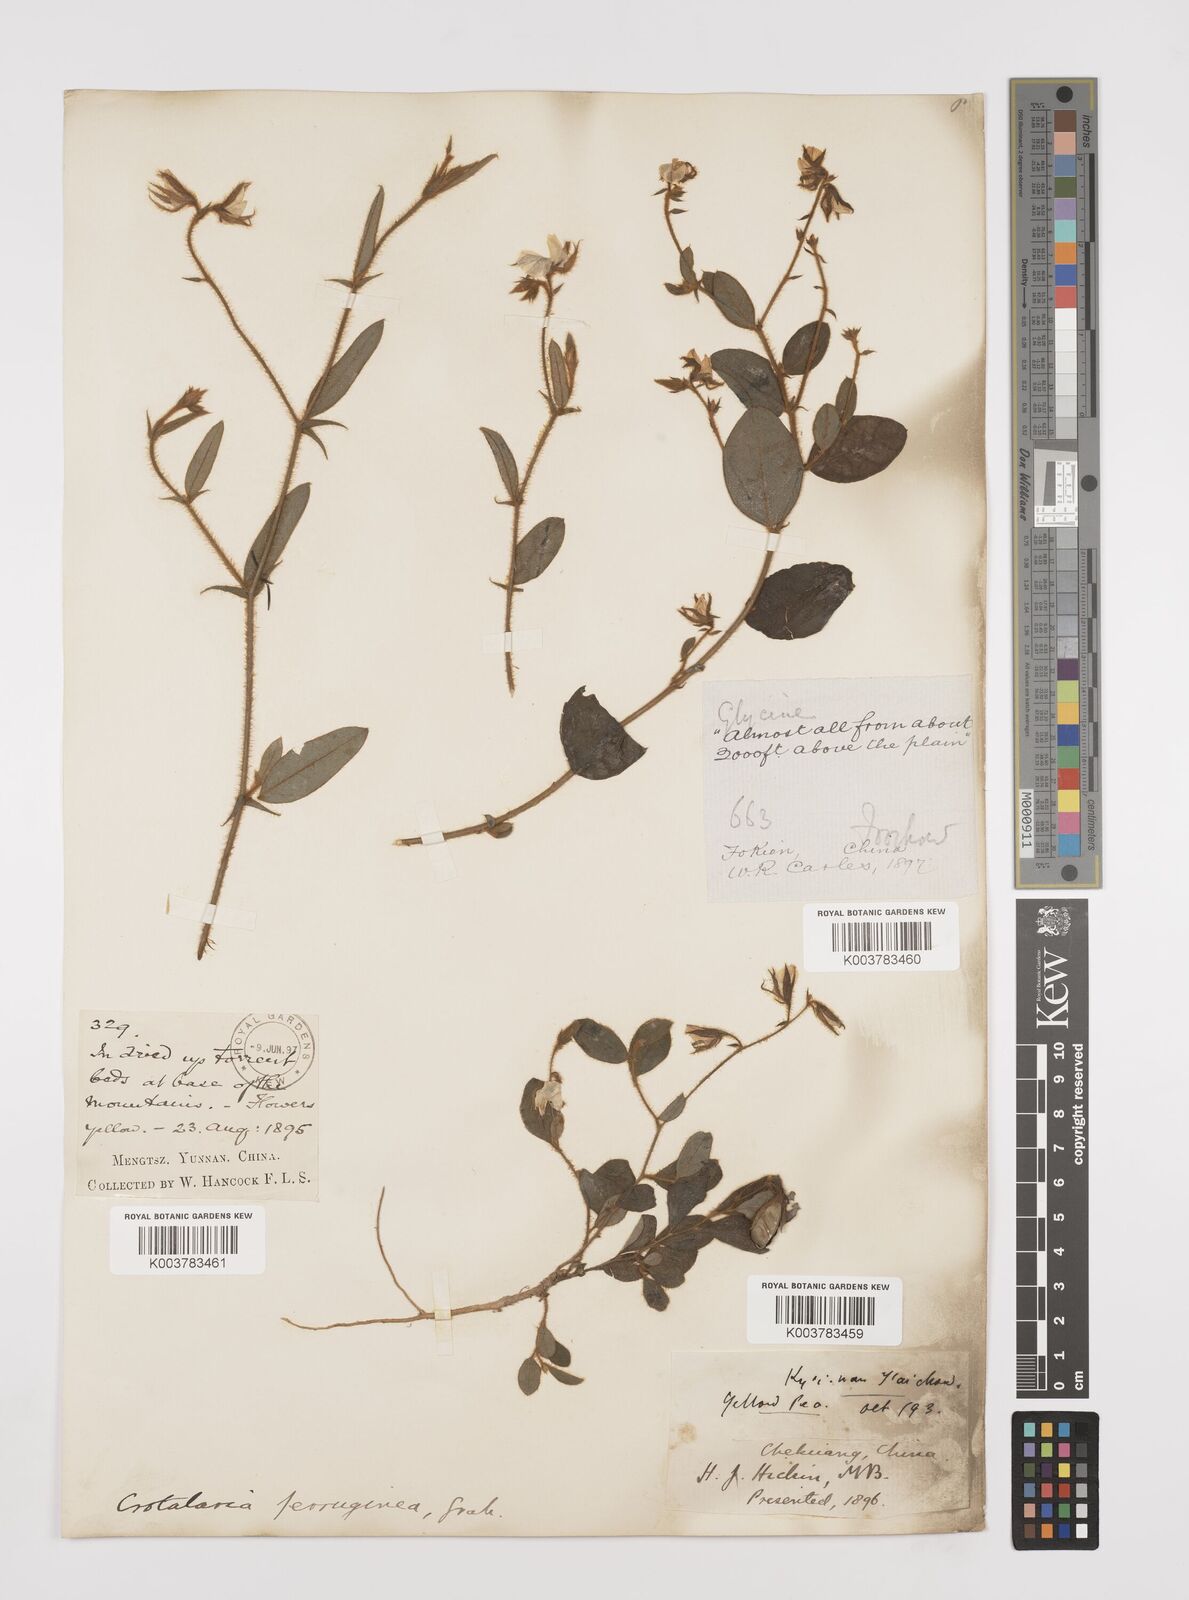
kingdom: Plantae
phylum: Tracheophyta
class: Magnoliopsida
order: Fabales
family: Fabaceae
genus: Crotalaria
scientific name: Crotalaria lejoloba
